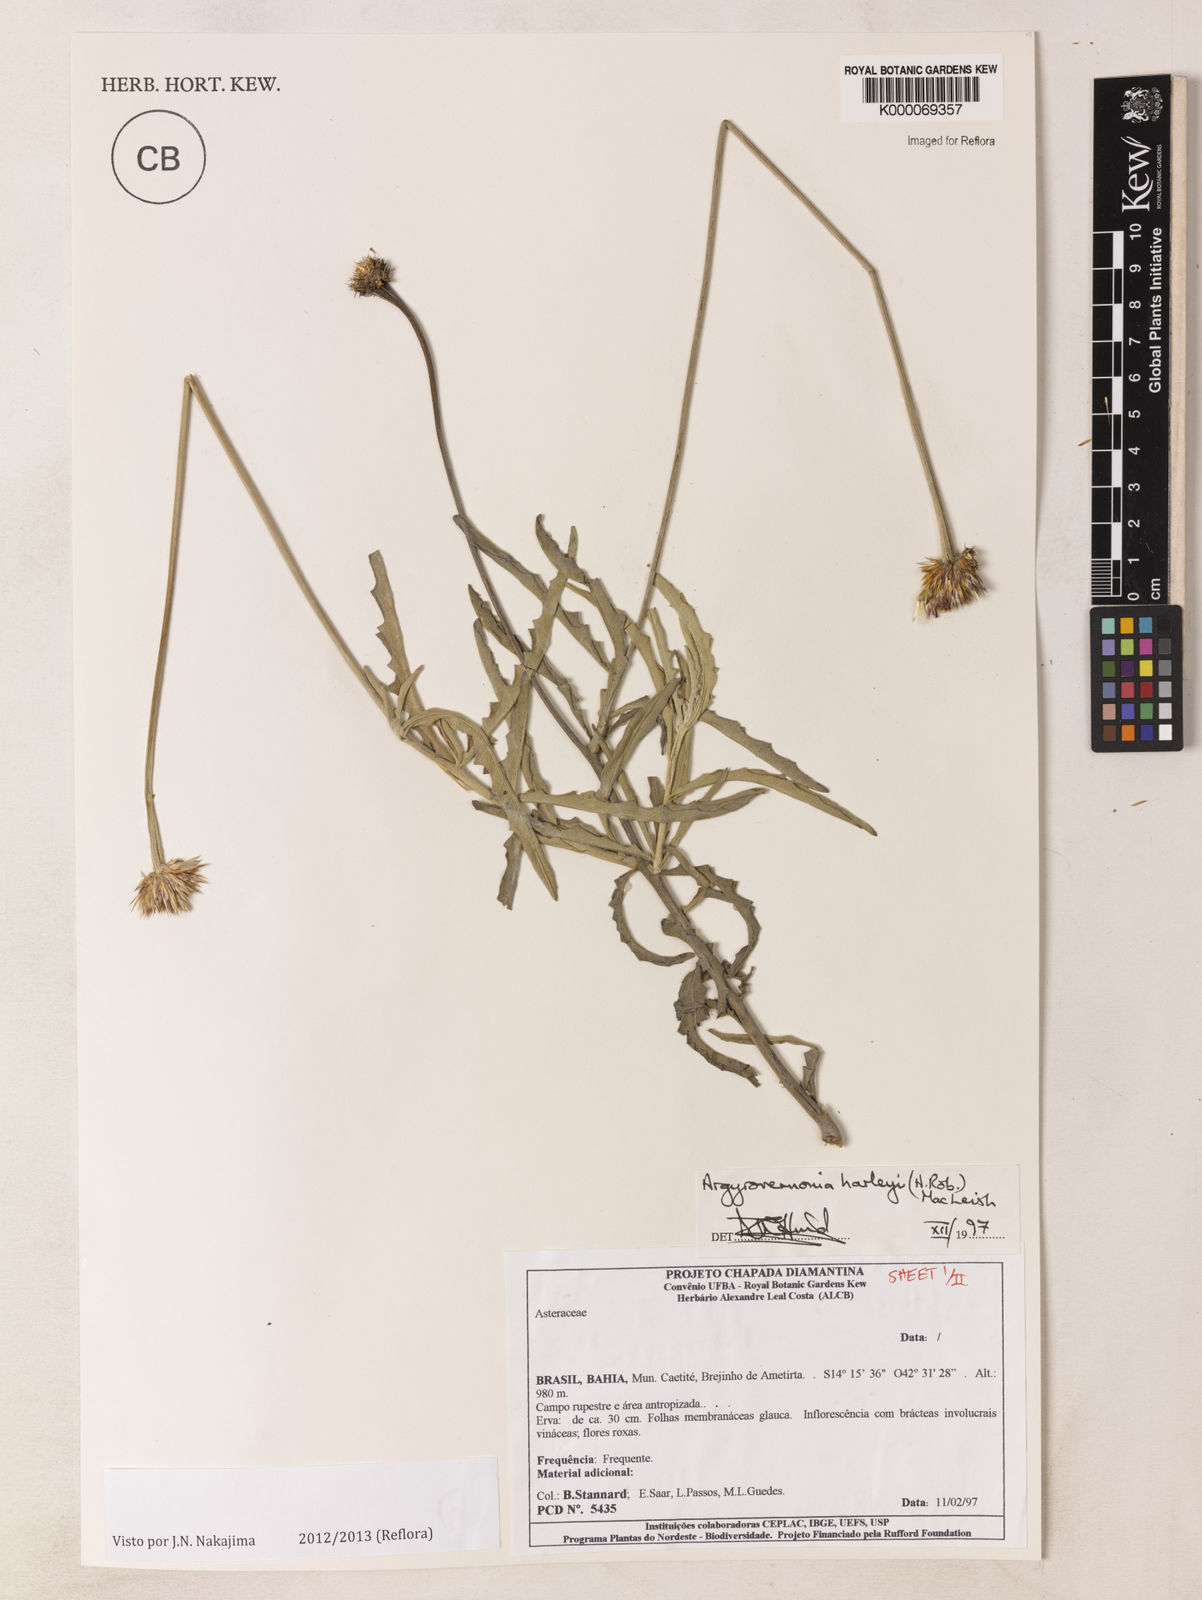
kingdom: Plantae
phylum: Tracheophyta
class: Magnoliopsida
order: Asterales
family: Asteraceae
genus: Chresta
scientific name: Chresta harleyi
